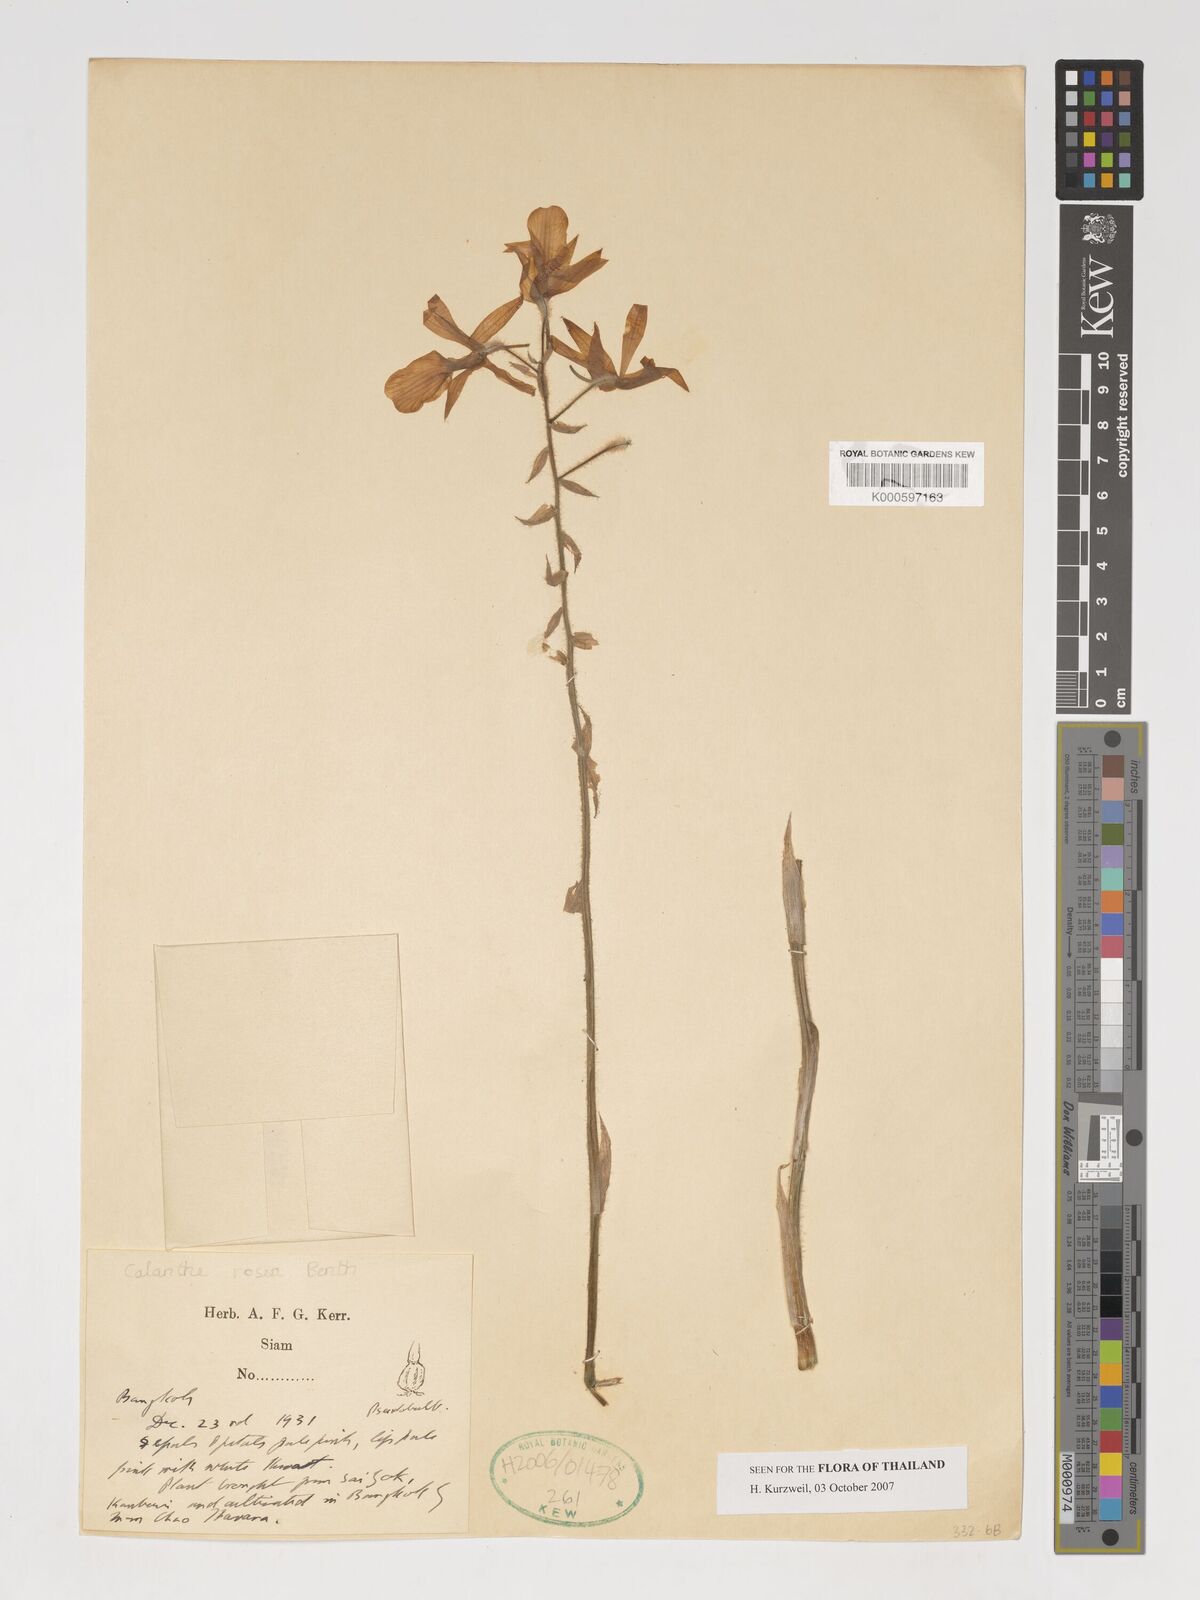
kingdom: Plantae
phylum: Tracheophyta
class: Liliopsida
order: Asparagales
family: Orchidaceae
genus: Calanthe
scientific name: Calanthe rosea
